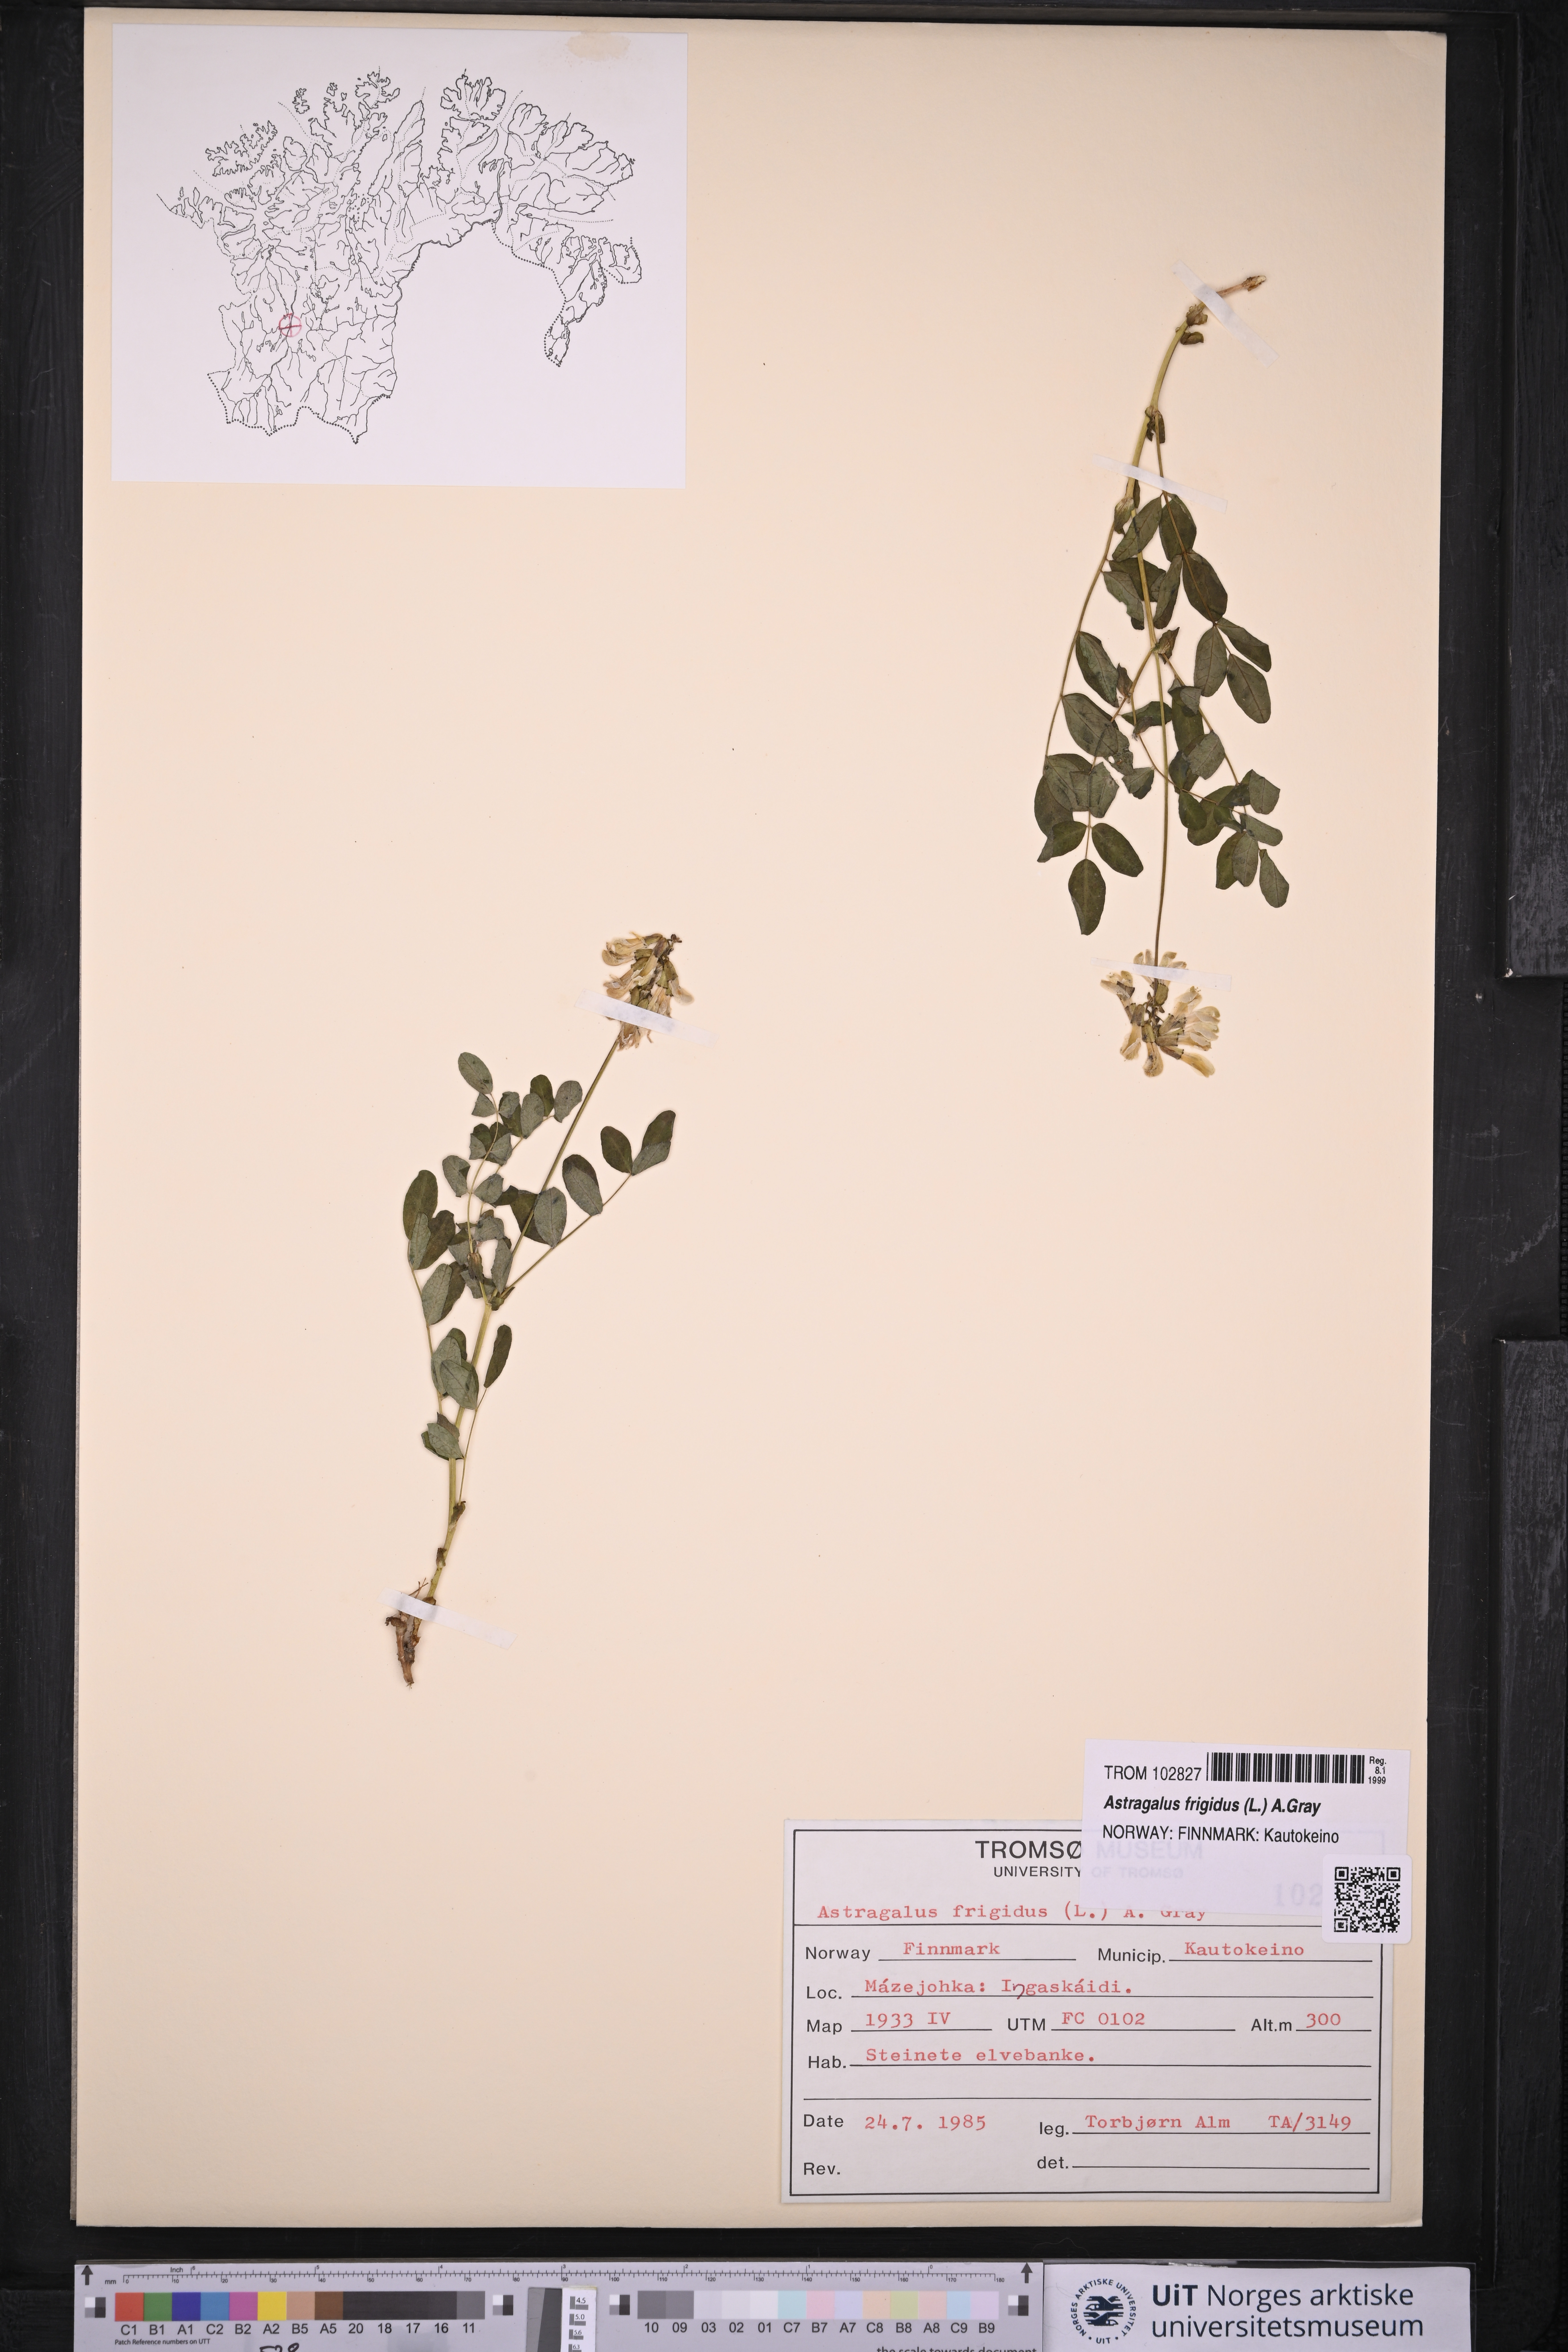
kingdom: Plantae
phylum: Tracheophyta
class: Magnoliopsida
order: Fabales
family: Fabaceae
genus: Astragalus
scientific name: Astragalus frigidus
